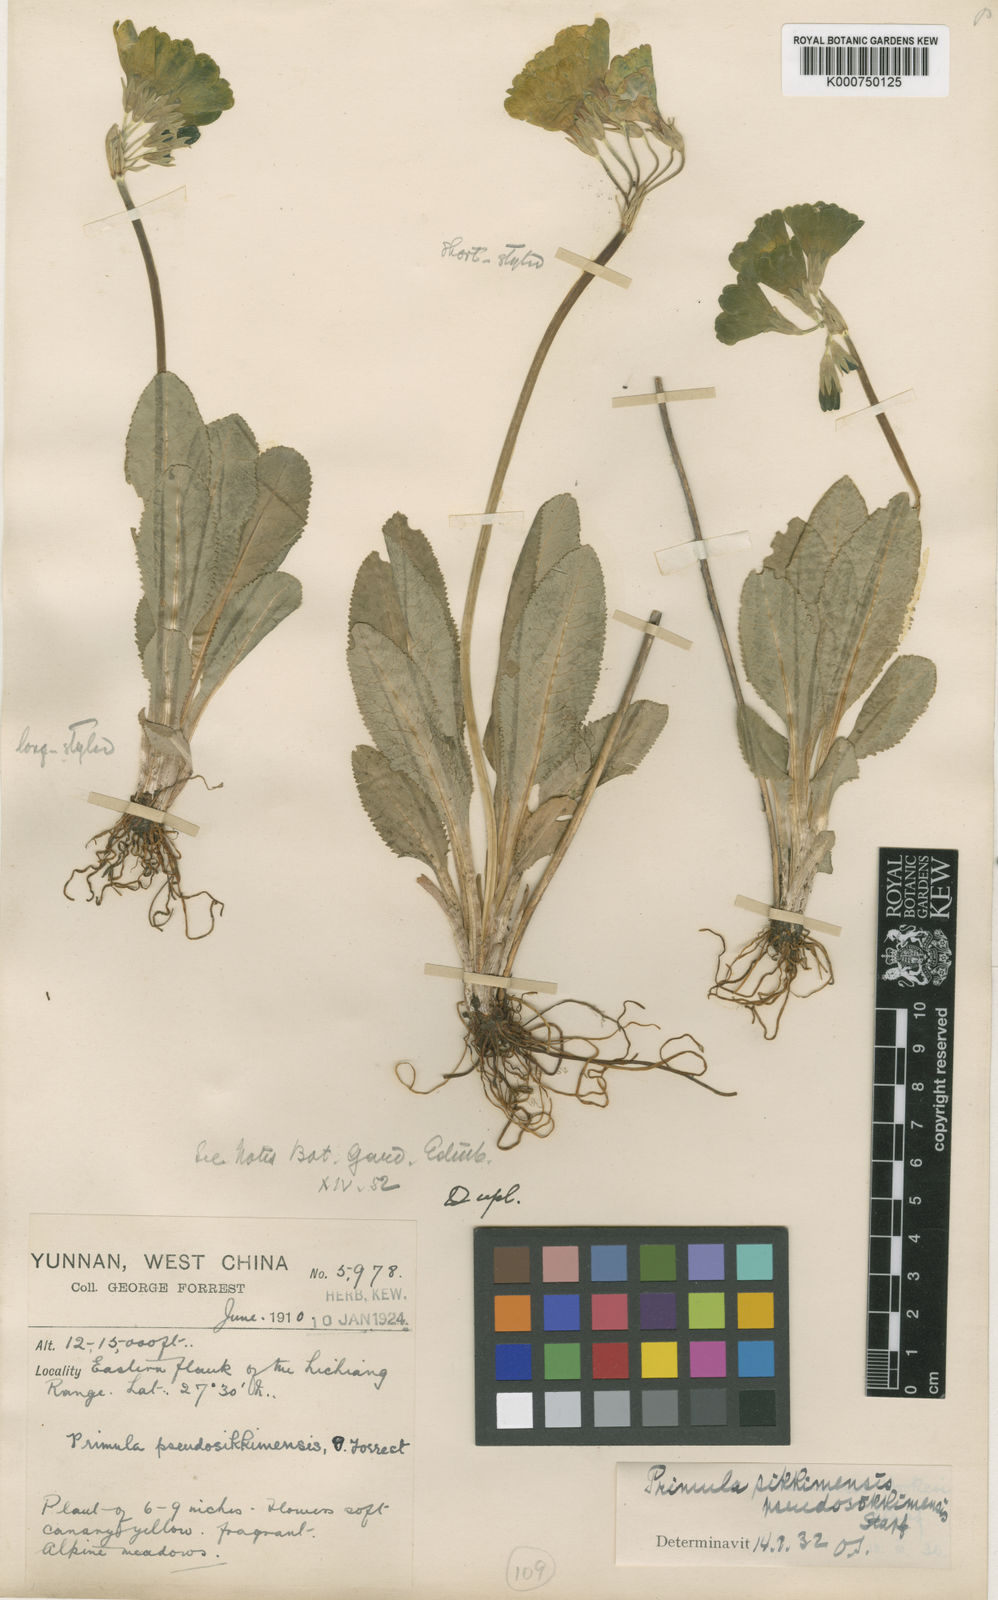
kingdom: Plantae
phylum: Tracheophyta
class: Magnoliopsida
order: Ericales
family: Primulaceae
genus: Primula
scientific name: Primula sikkimensis
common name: Sikkim cowslip
